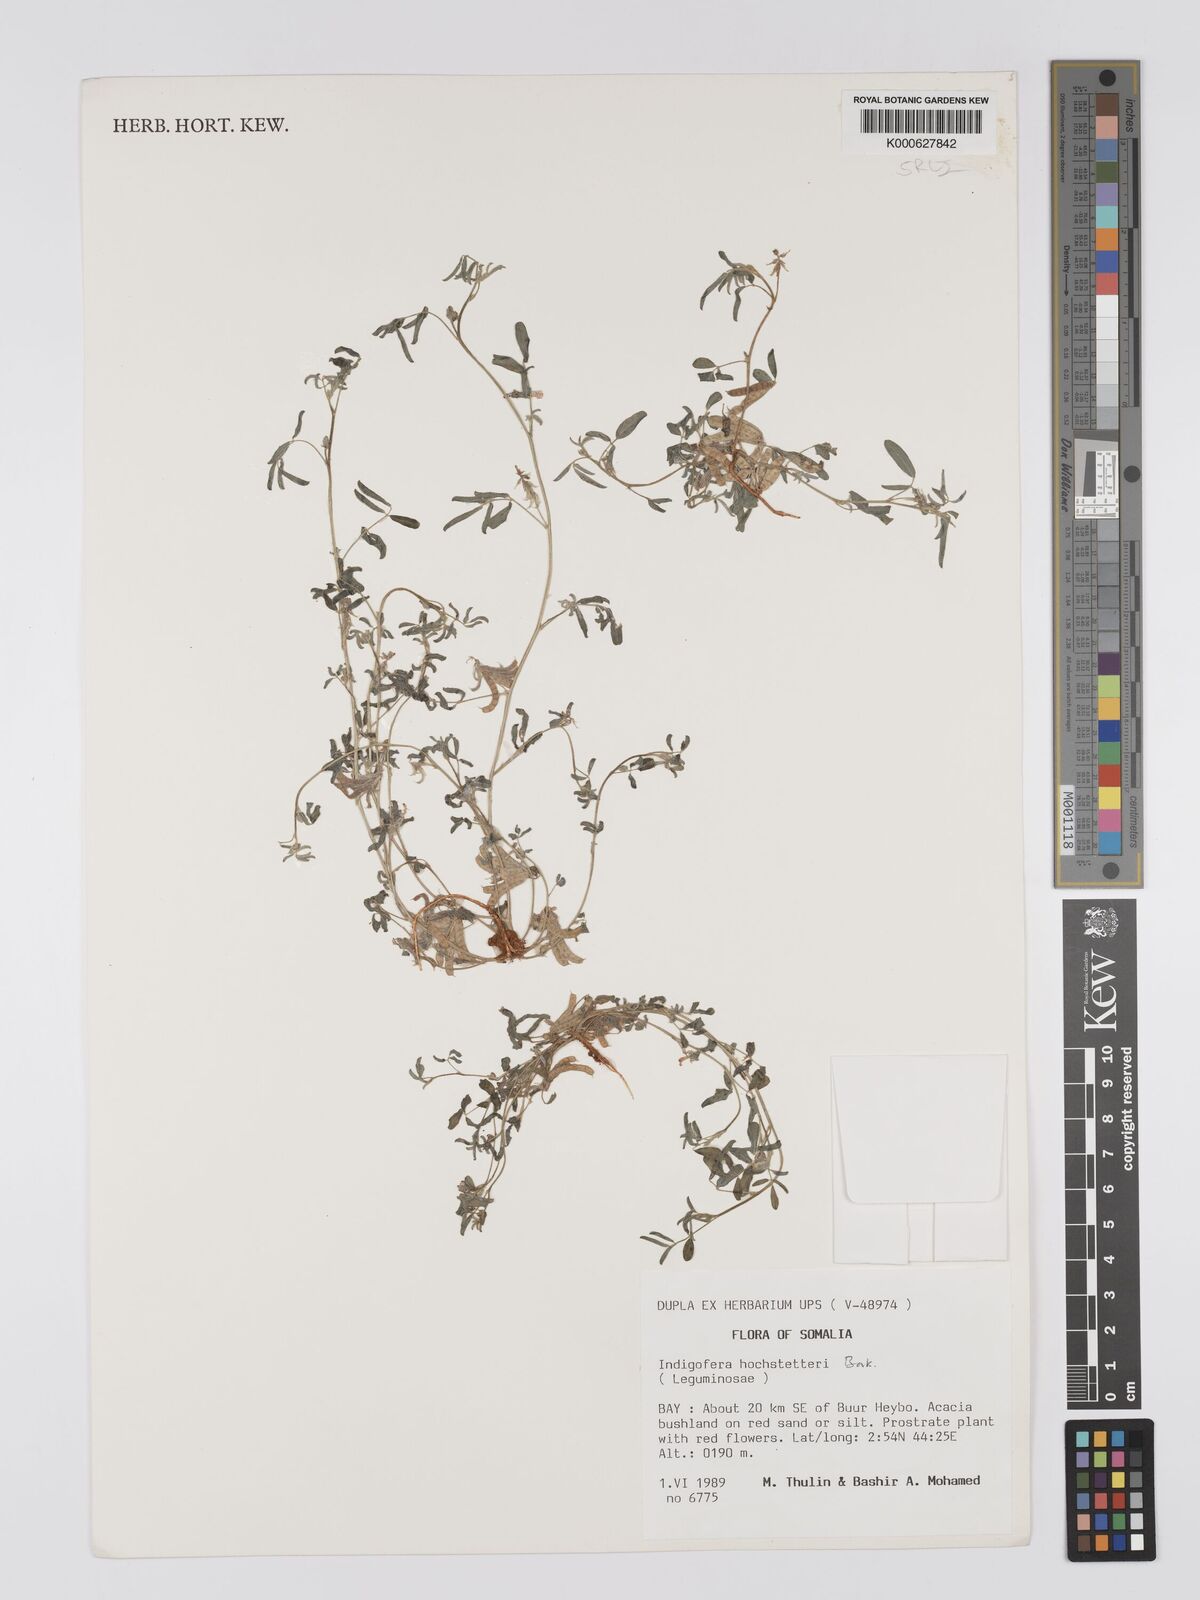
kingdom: Plantae
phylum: Tracheophyta
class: Magnoliopsida
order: Fabales
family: Fabaceae
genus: Indigofera
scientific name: Indigofera hochstetteri
